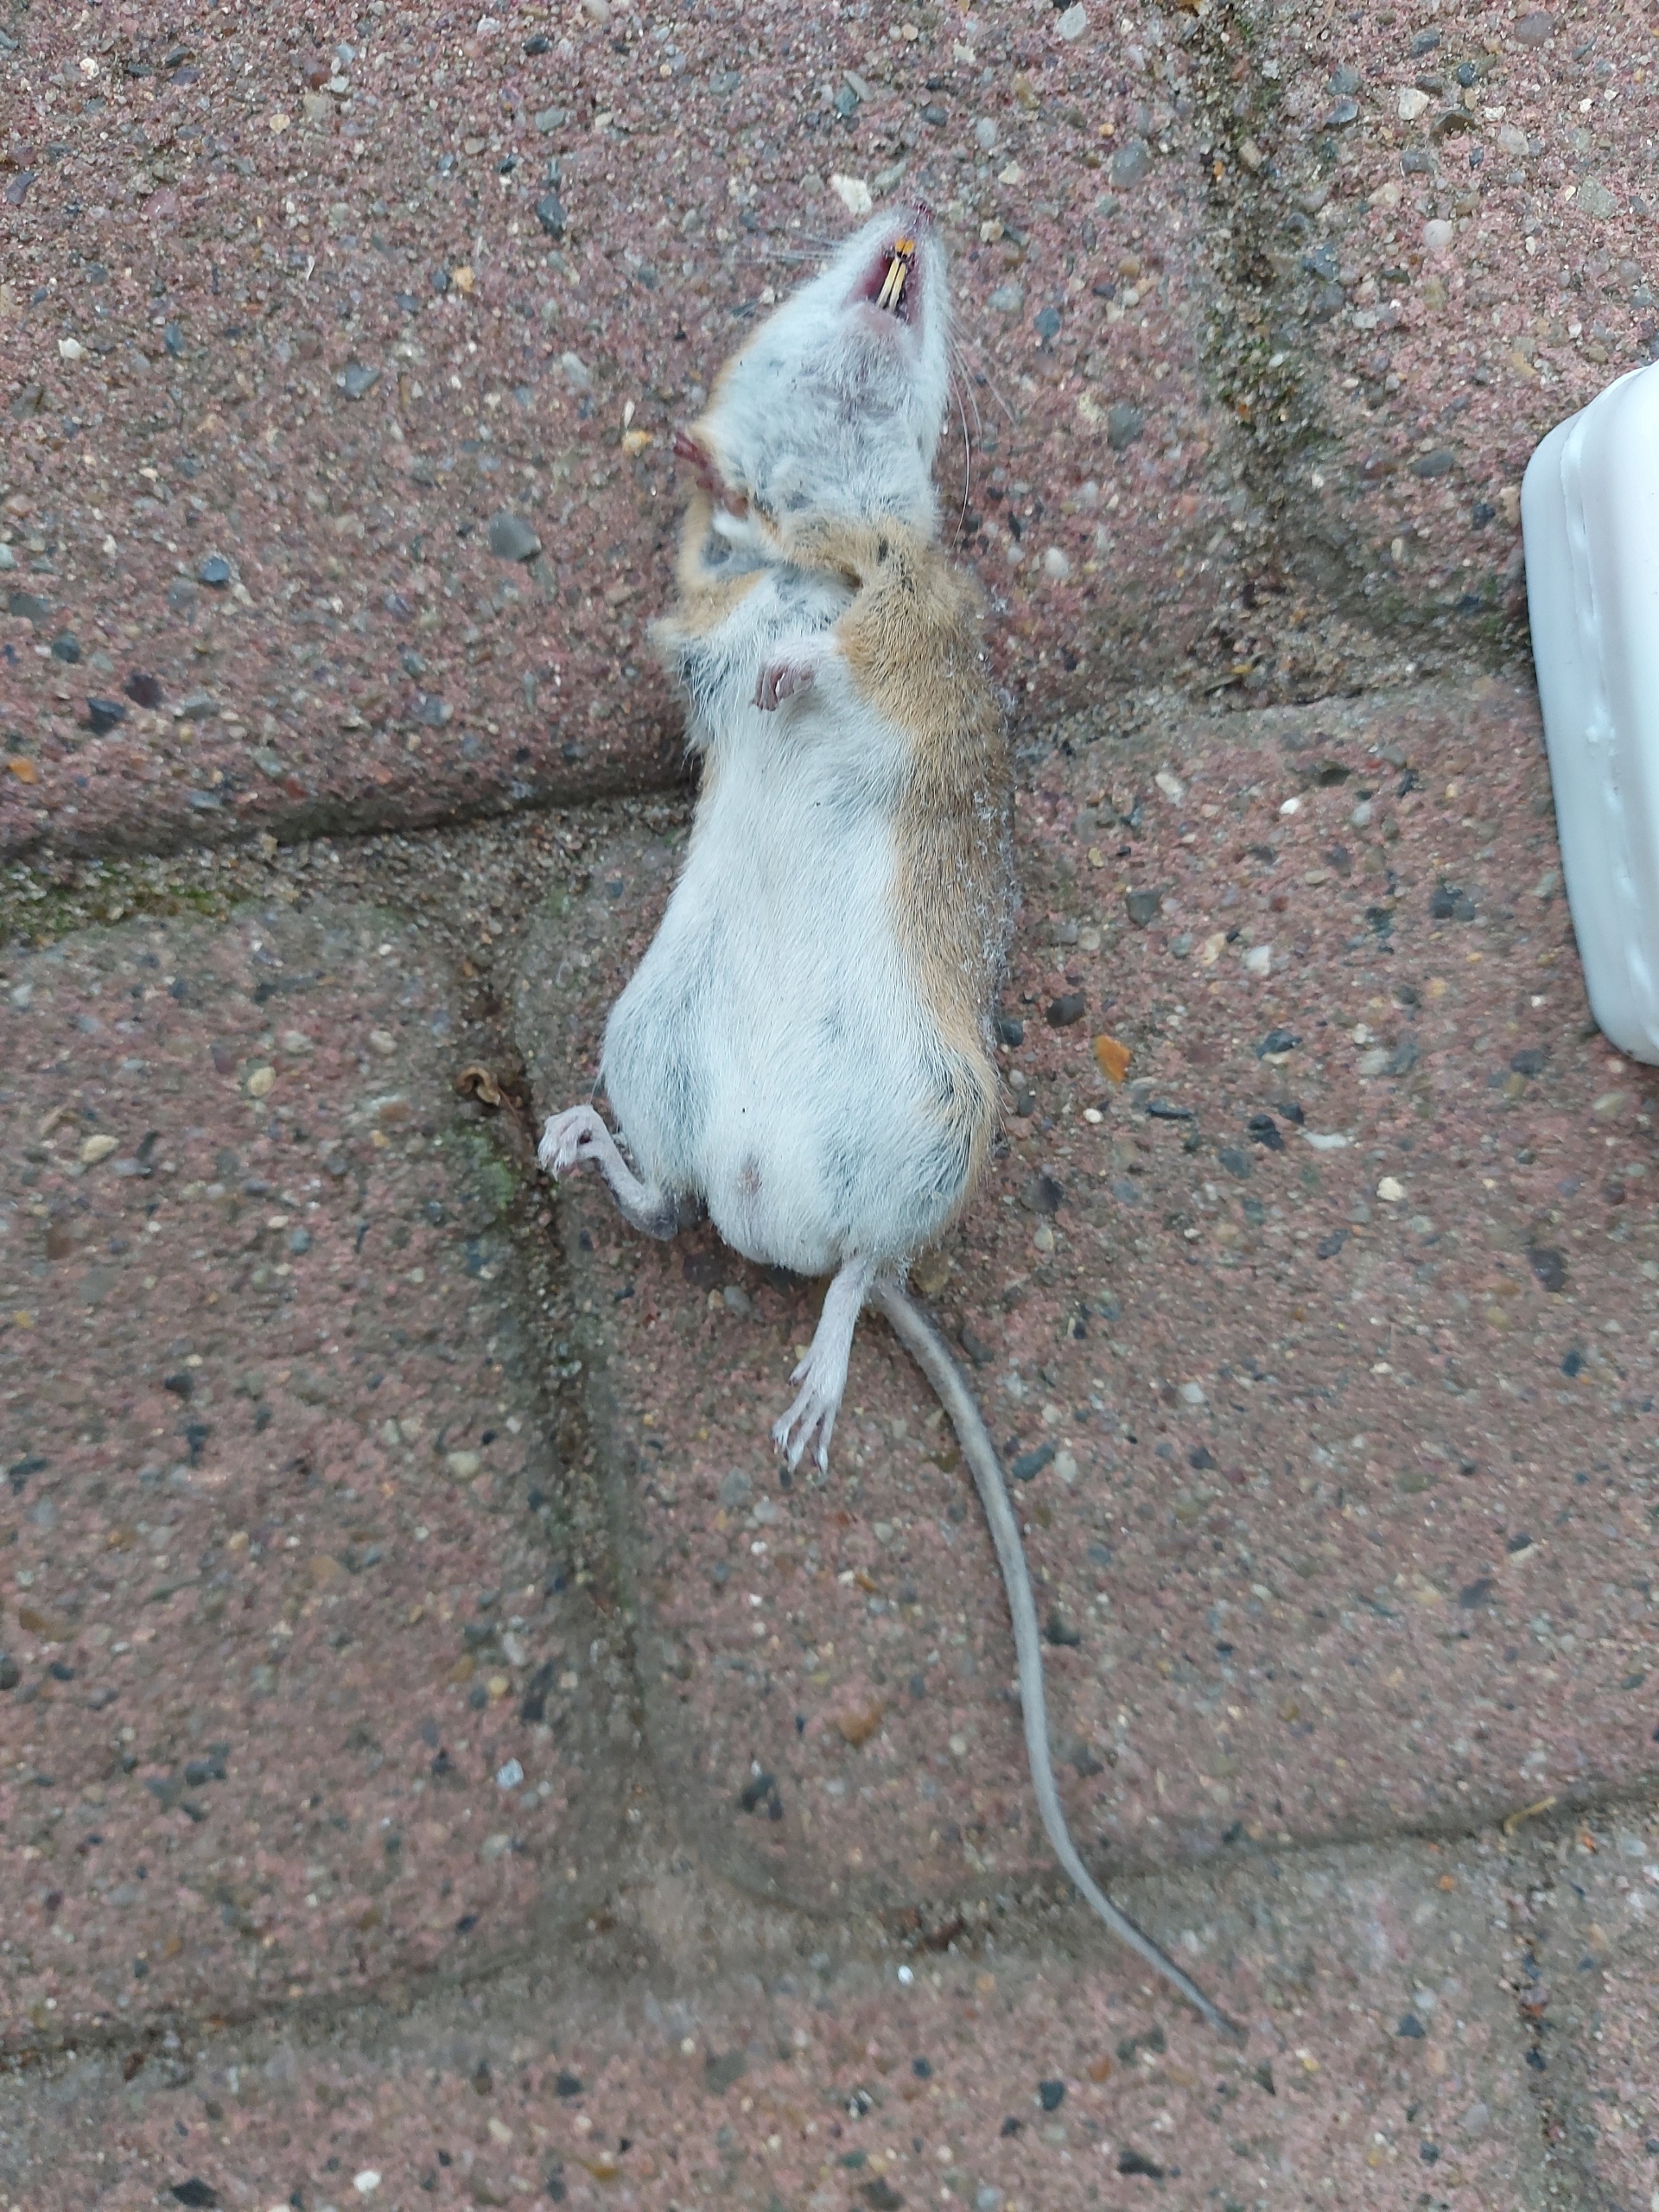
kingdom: Animalia
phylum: Chordata
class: Mammalia
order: Rodentia
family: Muridae
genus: Apodemus
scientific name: Apodemus flavicollis
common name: Halsbåndmus
